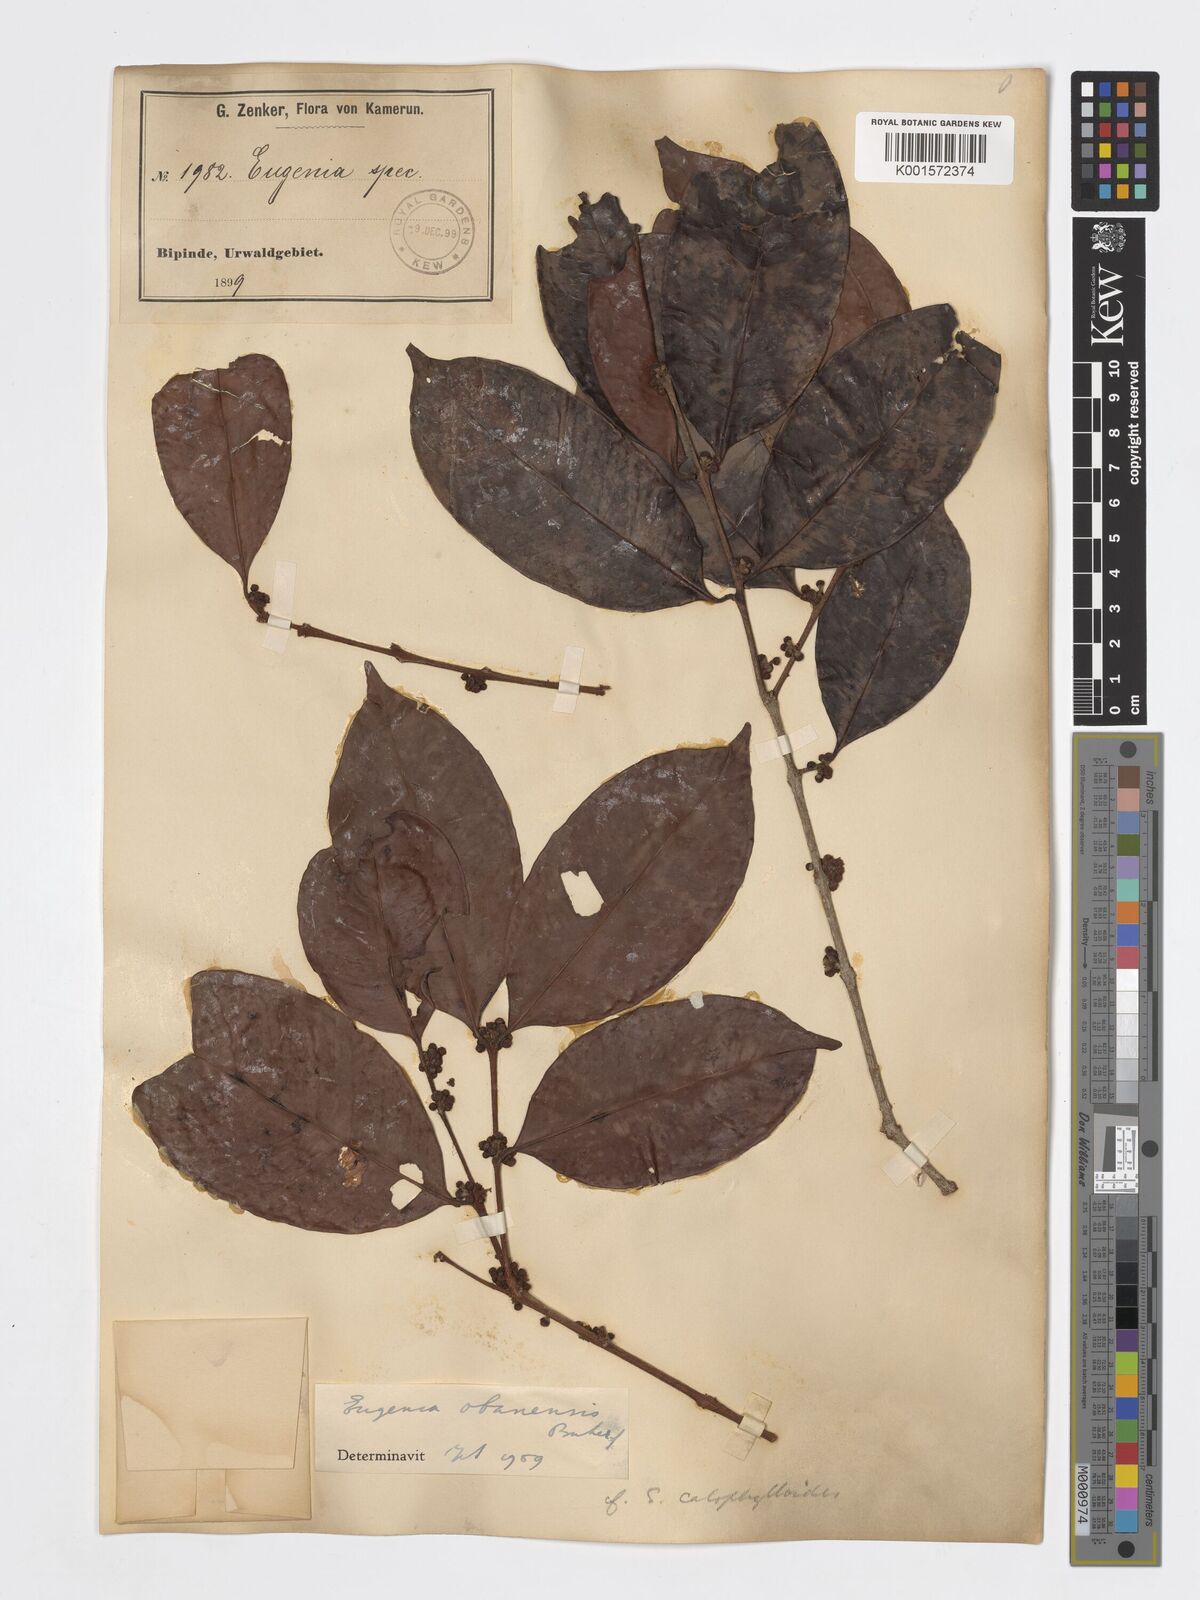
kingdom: Plantae
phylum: Tracheophyta
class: Magnoliopsida
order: Myrtales
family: Myrtaceae
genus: Eugenia
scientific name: Eugenia obanensis
